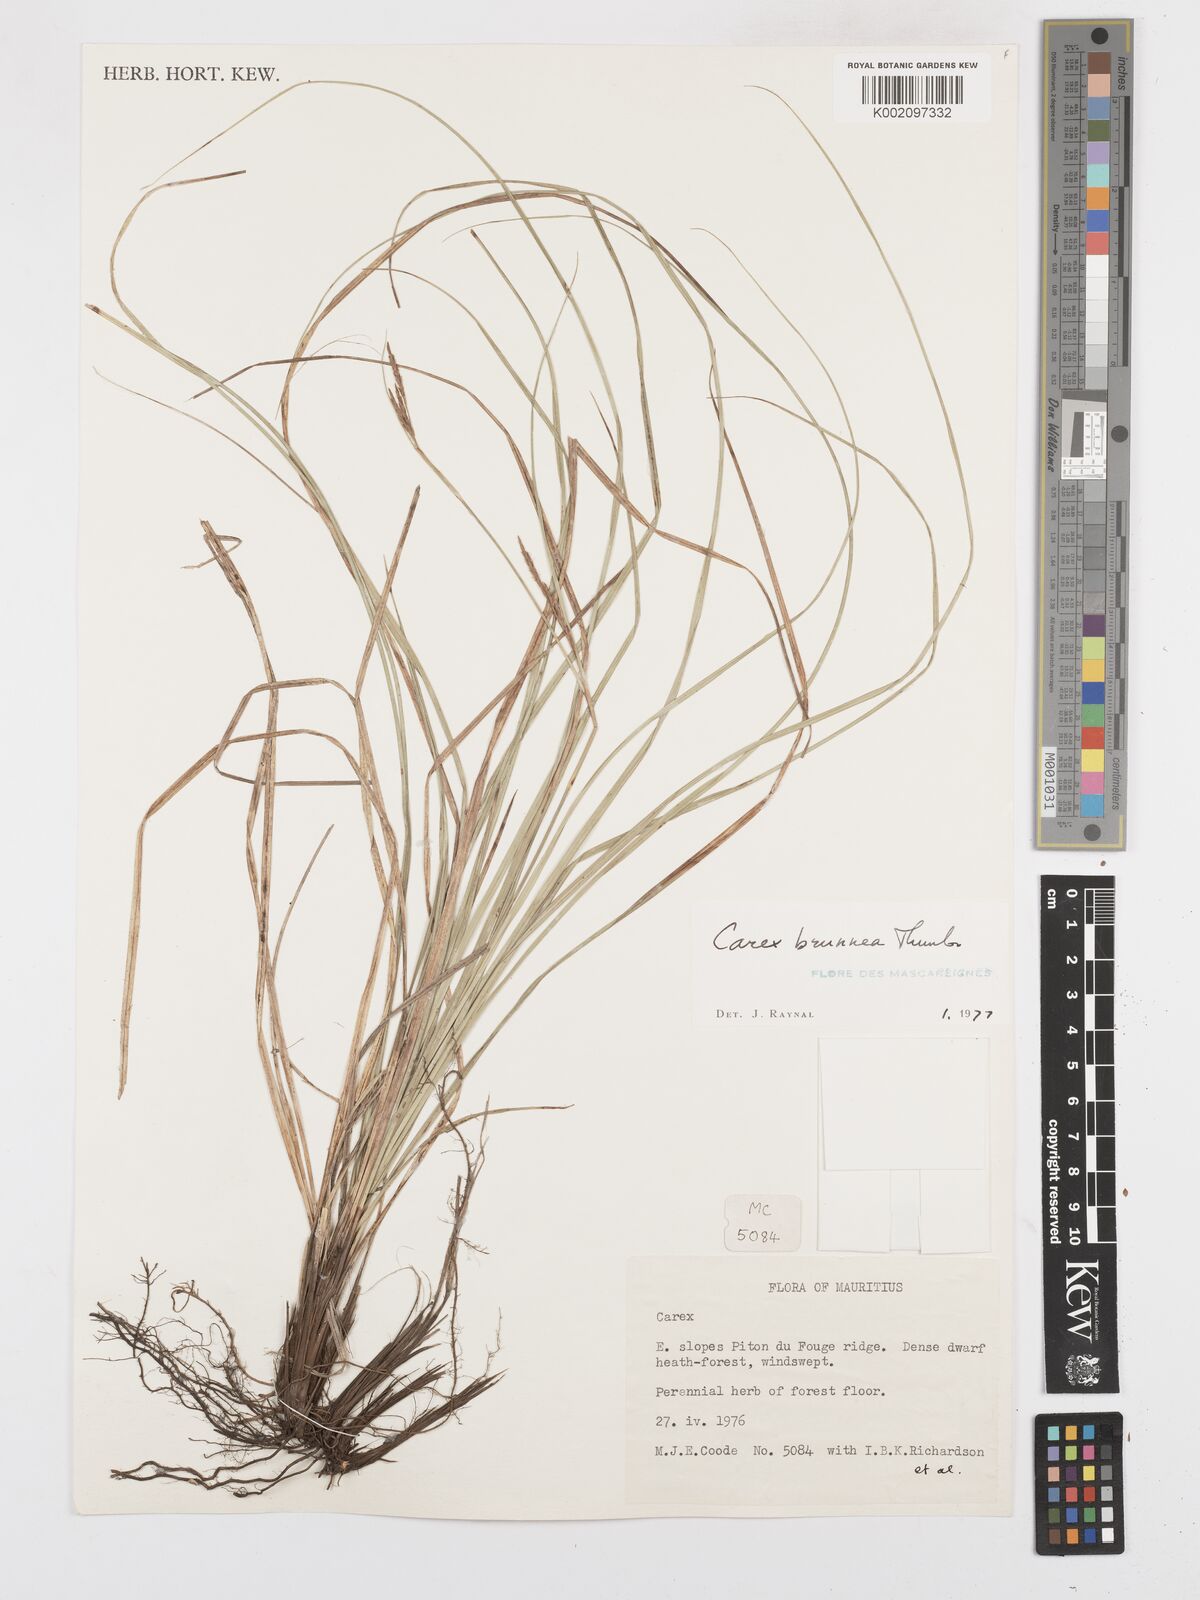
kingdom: Plantae
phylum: Tracheophyta
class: Liliopsida
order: Poales
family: Cyperaceae
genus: Carex
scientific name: Carex brunnea
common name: Greater brown sedge
